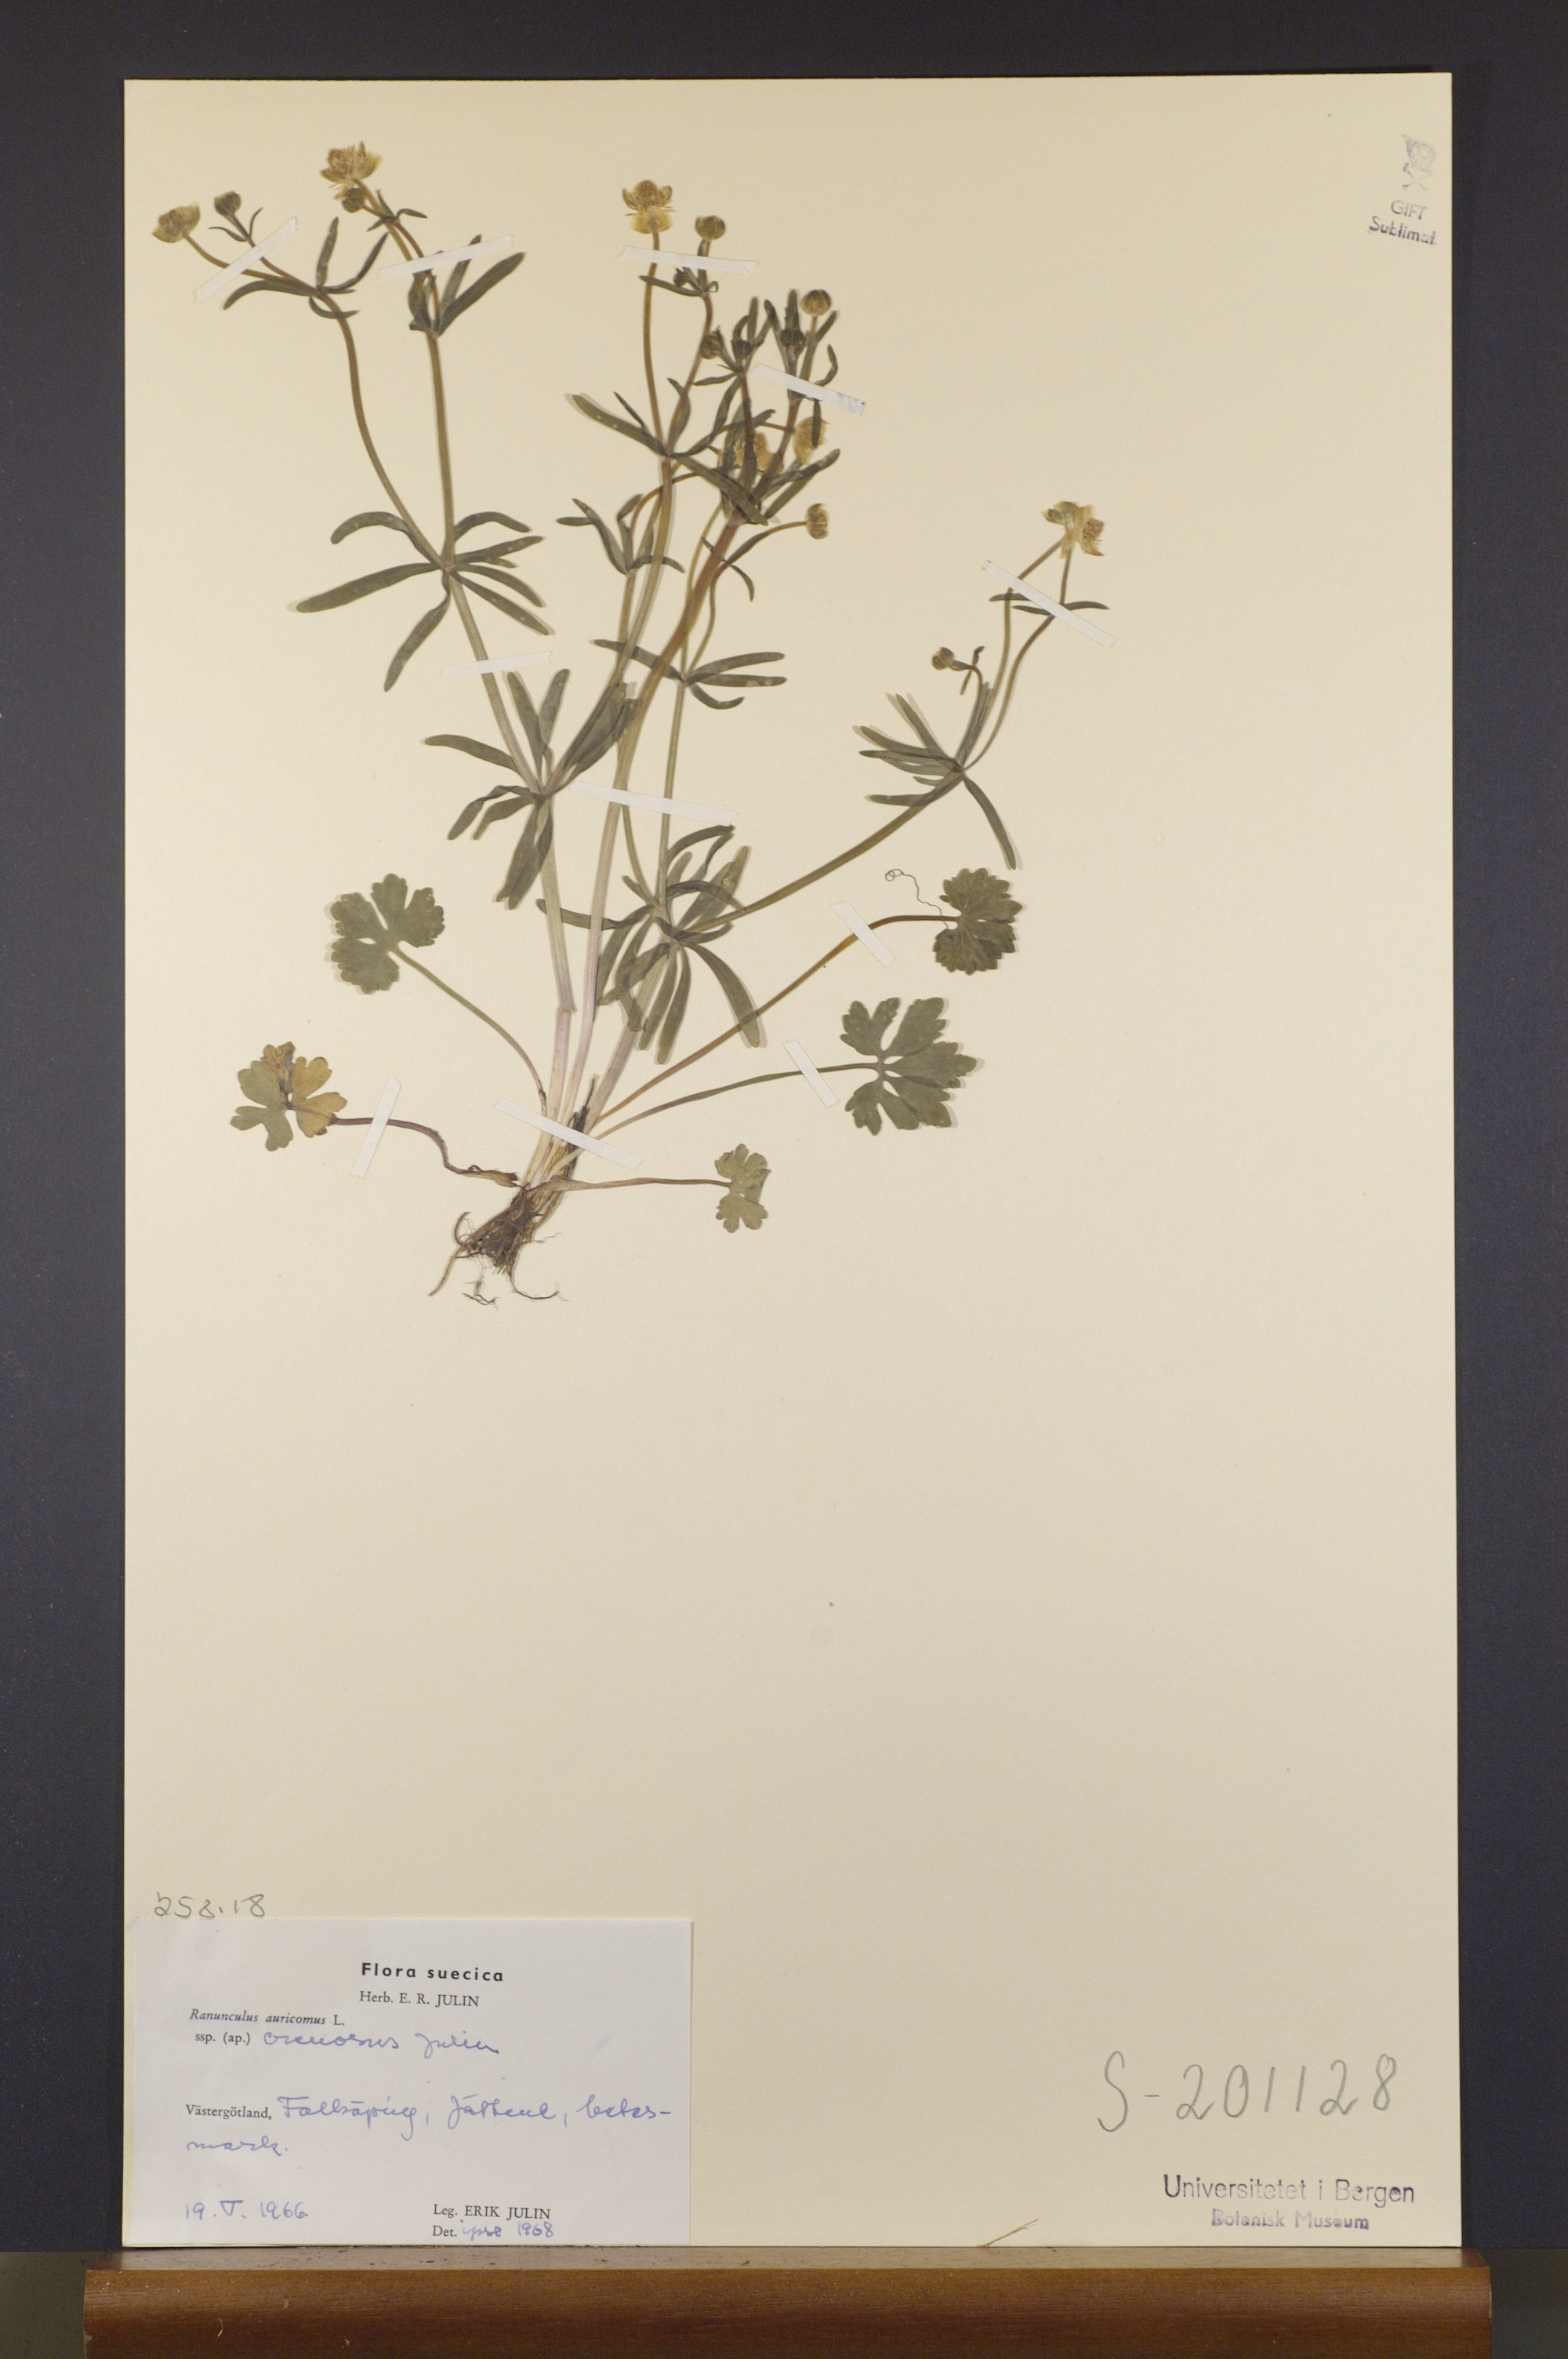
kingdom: Plantae
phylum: Tracheophyta
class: Magnoliopsida
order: Ranunculales
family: Ranunculaceae
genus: Ranunculus
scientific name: Ranunculus auricomus
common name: Goldilocks buttercup
